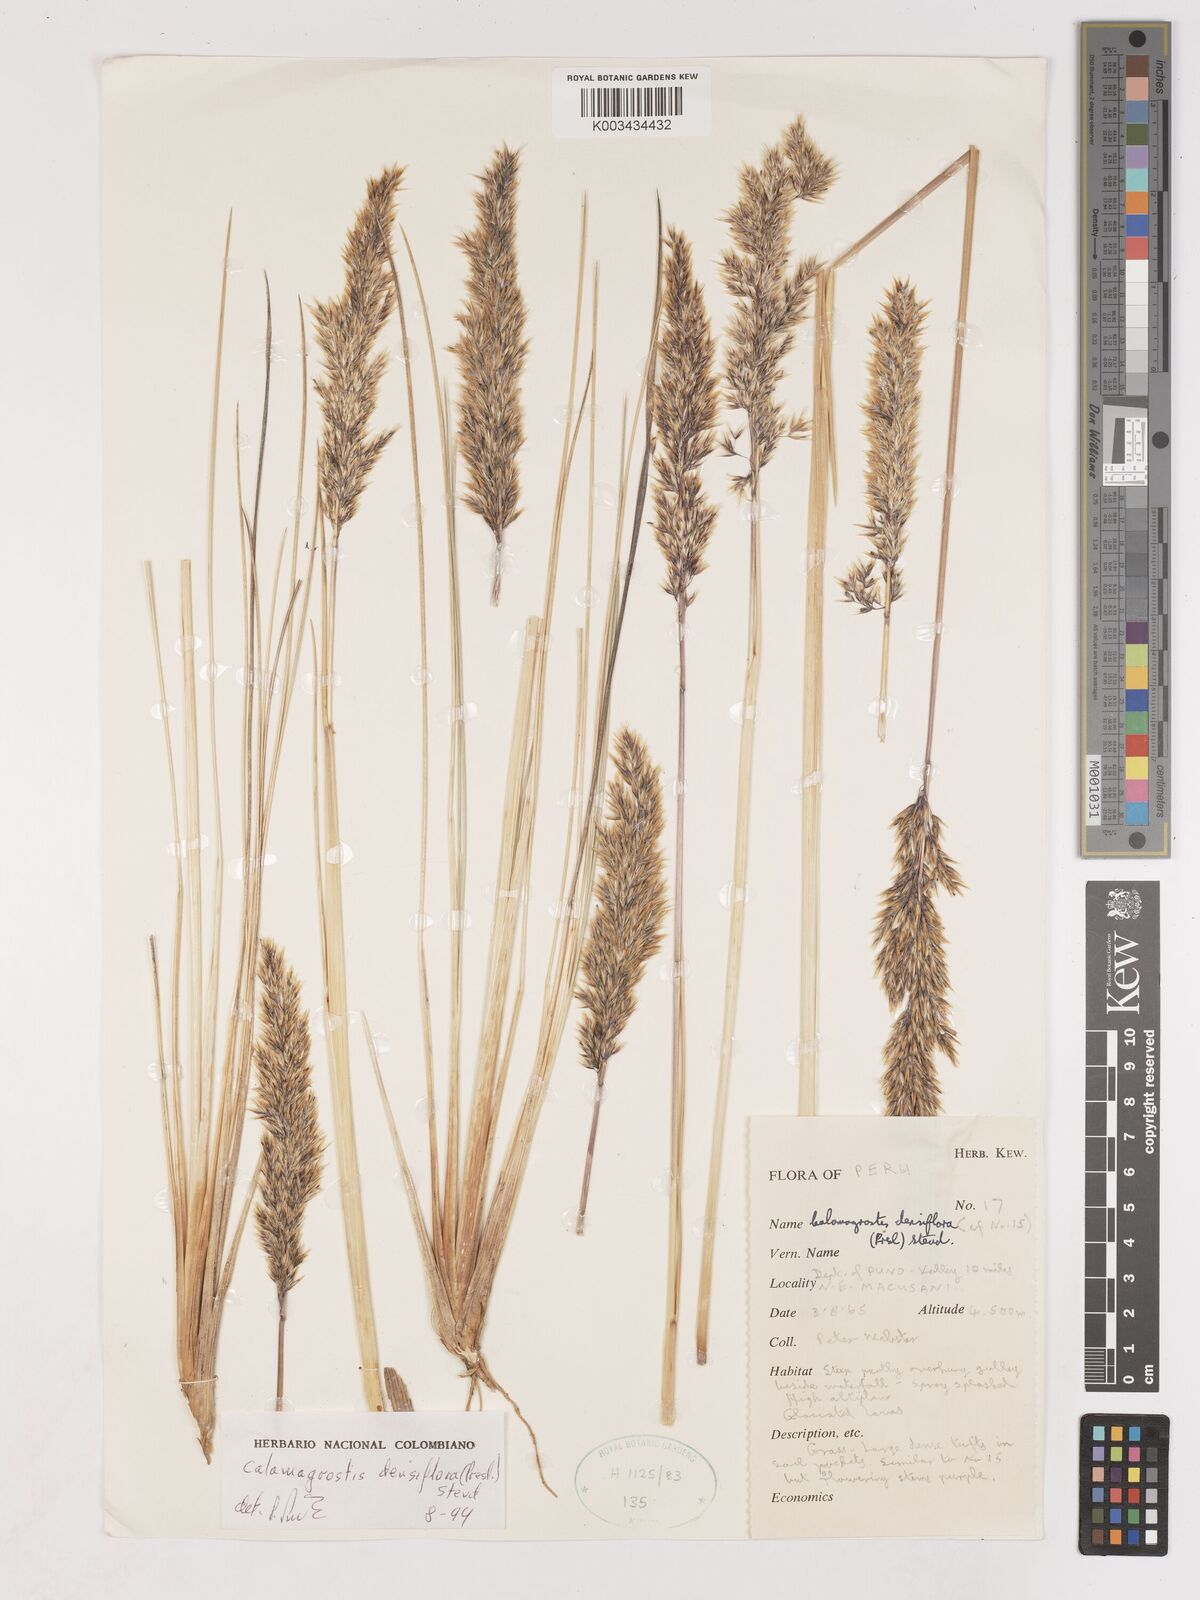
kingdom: Plantae
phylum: Tracheophyta
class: Liliopsida
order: Poales
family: Poaceae
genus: Cinnagrostis
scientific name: Cinnagrostis densiflora
